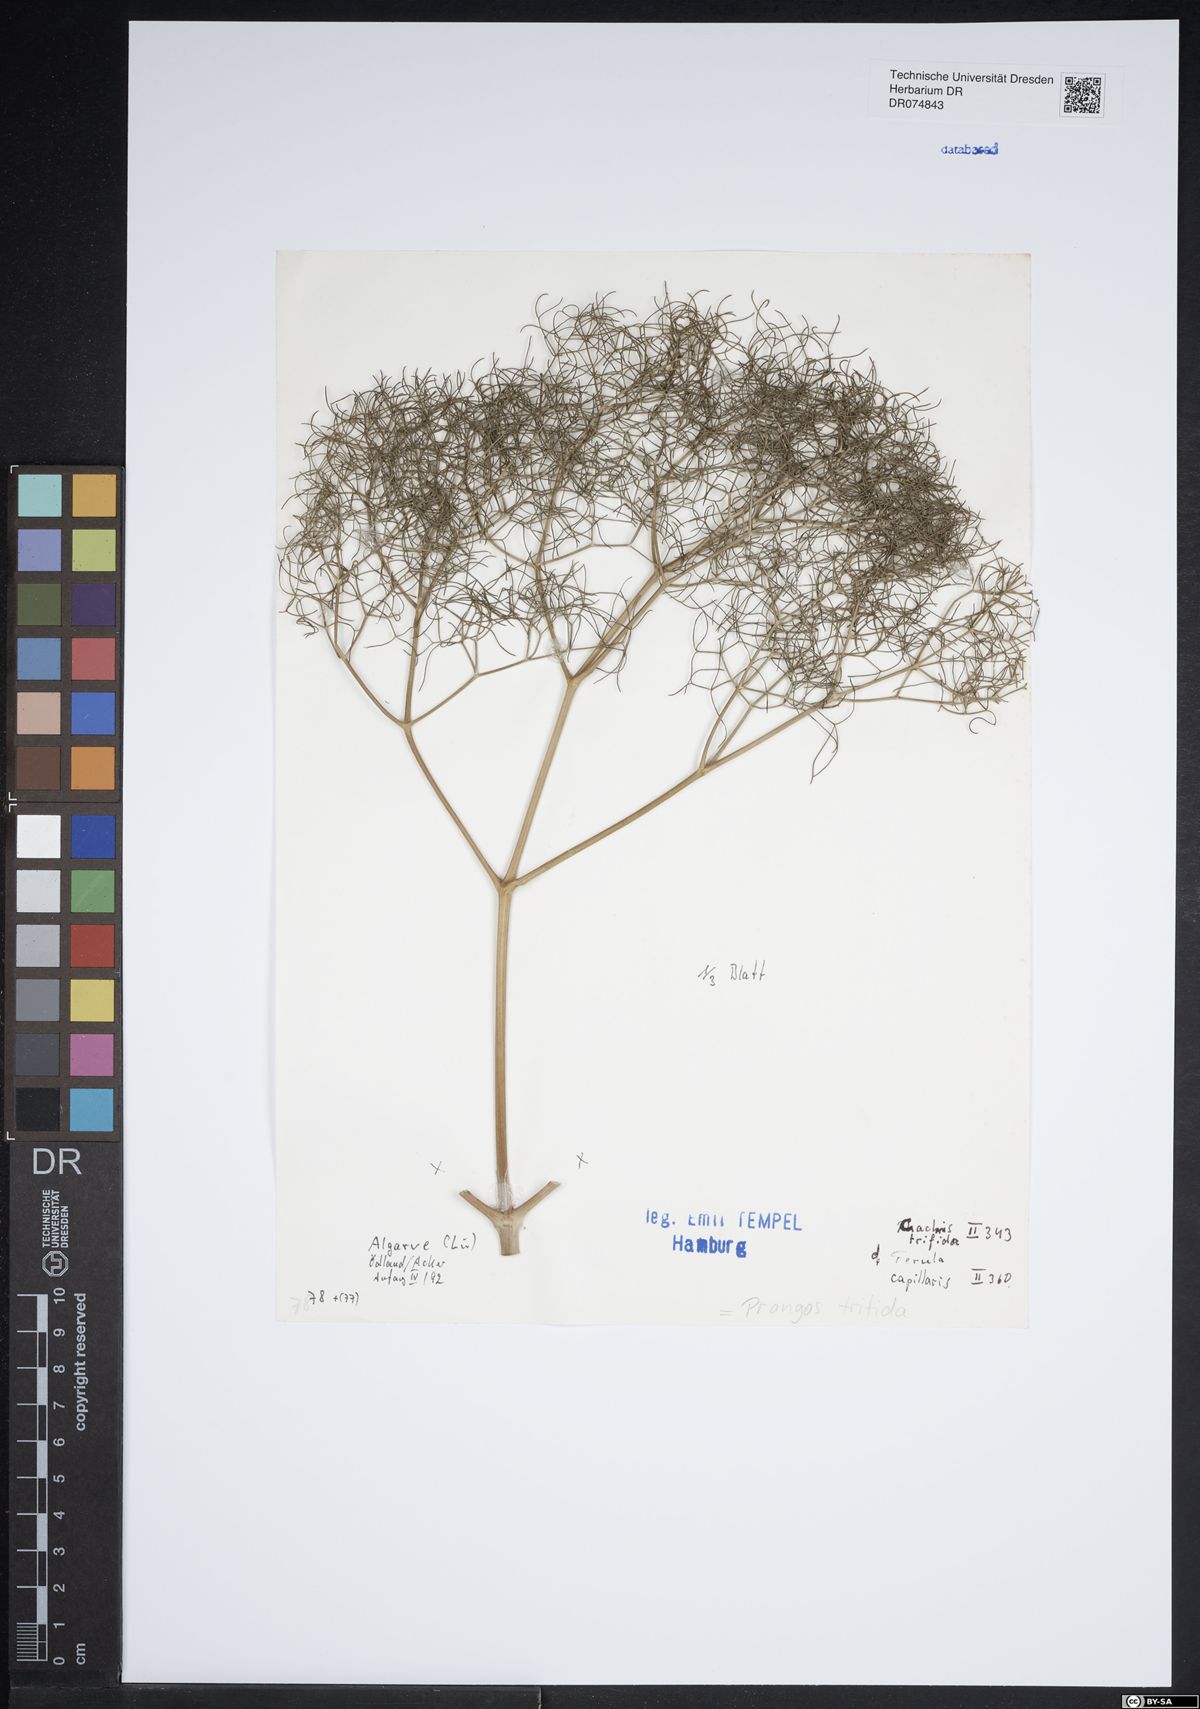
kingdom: Plantae
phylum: Tracheophyta
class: Magnoliopsida
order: Apiales
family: Apiaceae
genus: Prangos
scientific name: Prangos trifida
